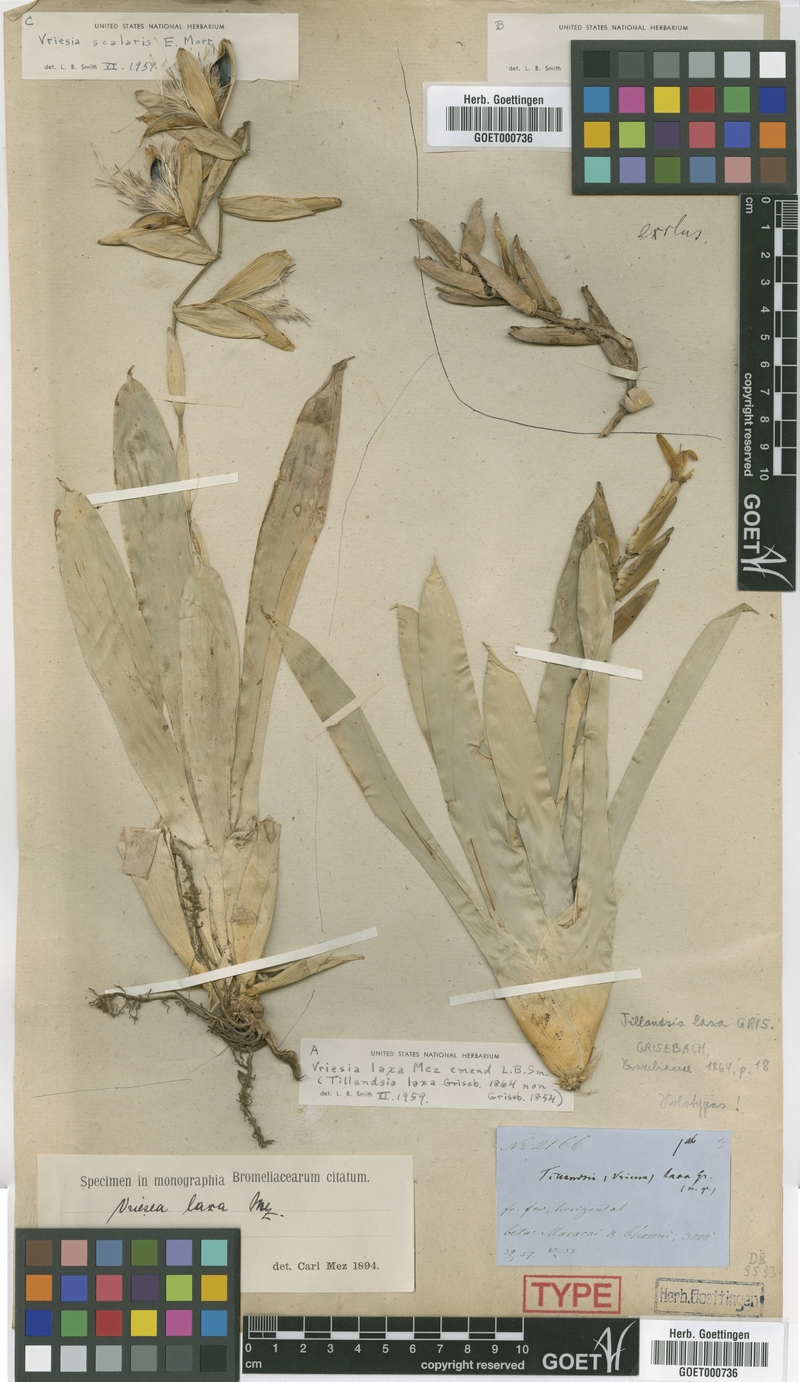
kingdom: Plantae
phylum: Tracheophyta
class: Liliopsida
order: Poales
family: Bromeliaceae
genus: Vriesea
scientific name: Vriesea laxa
